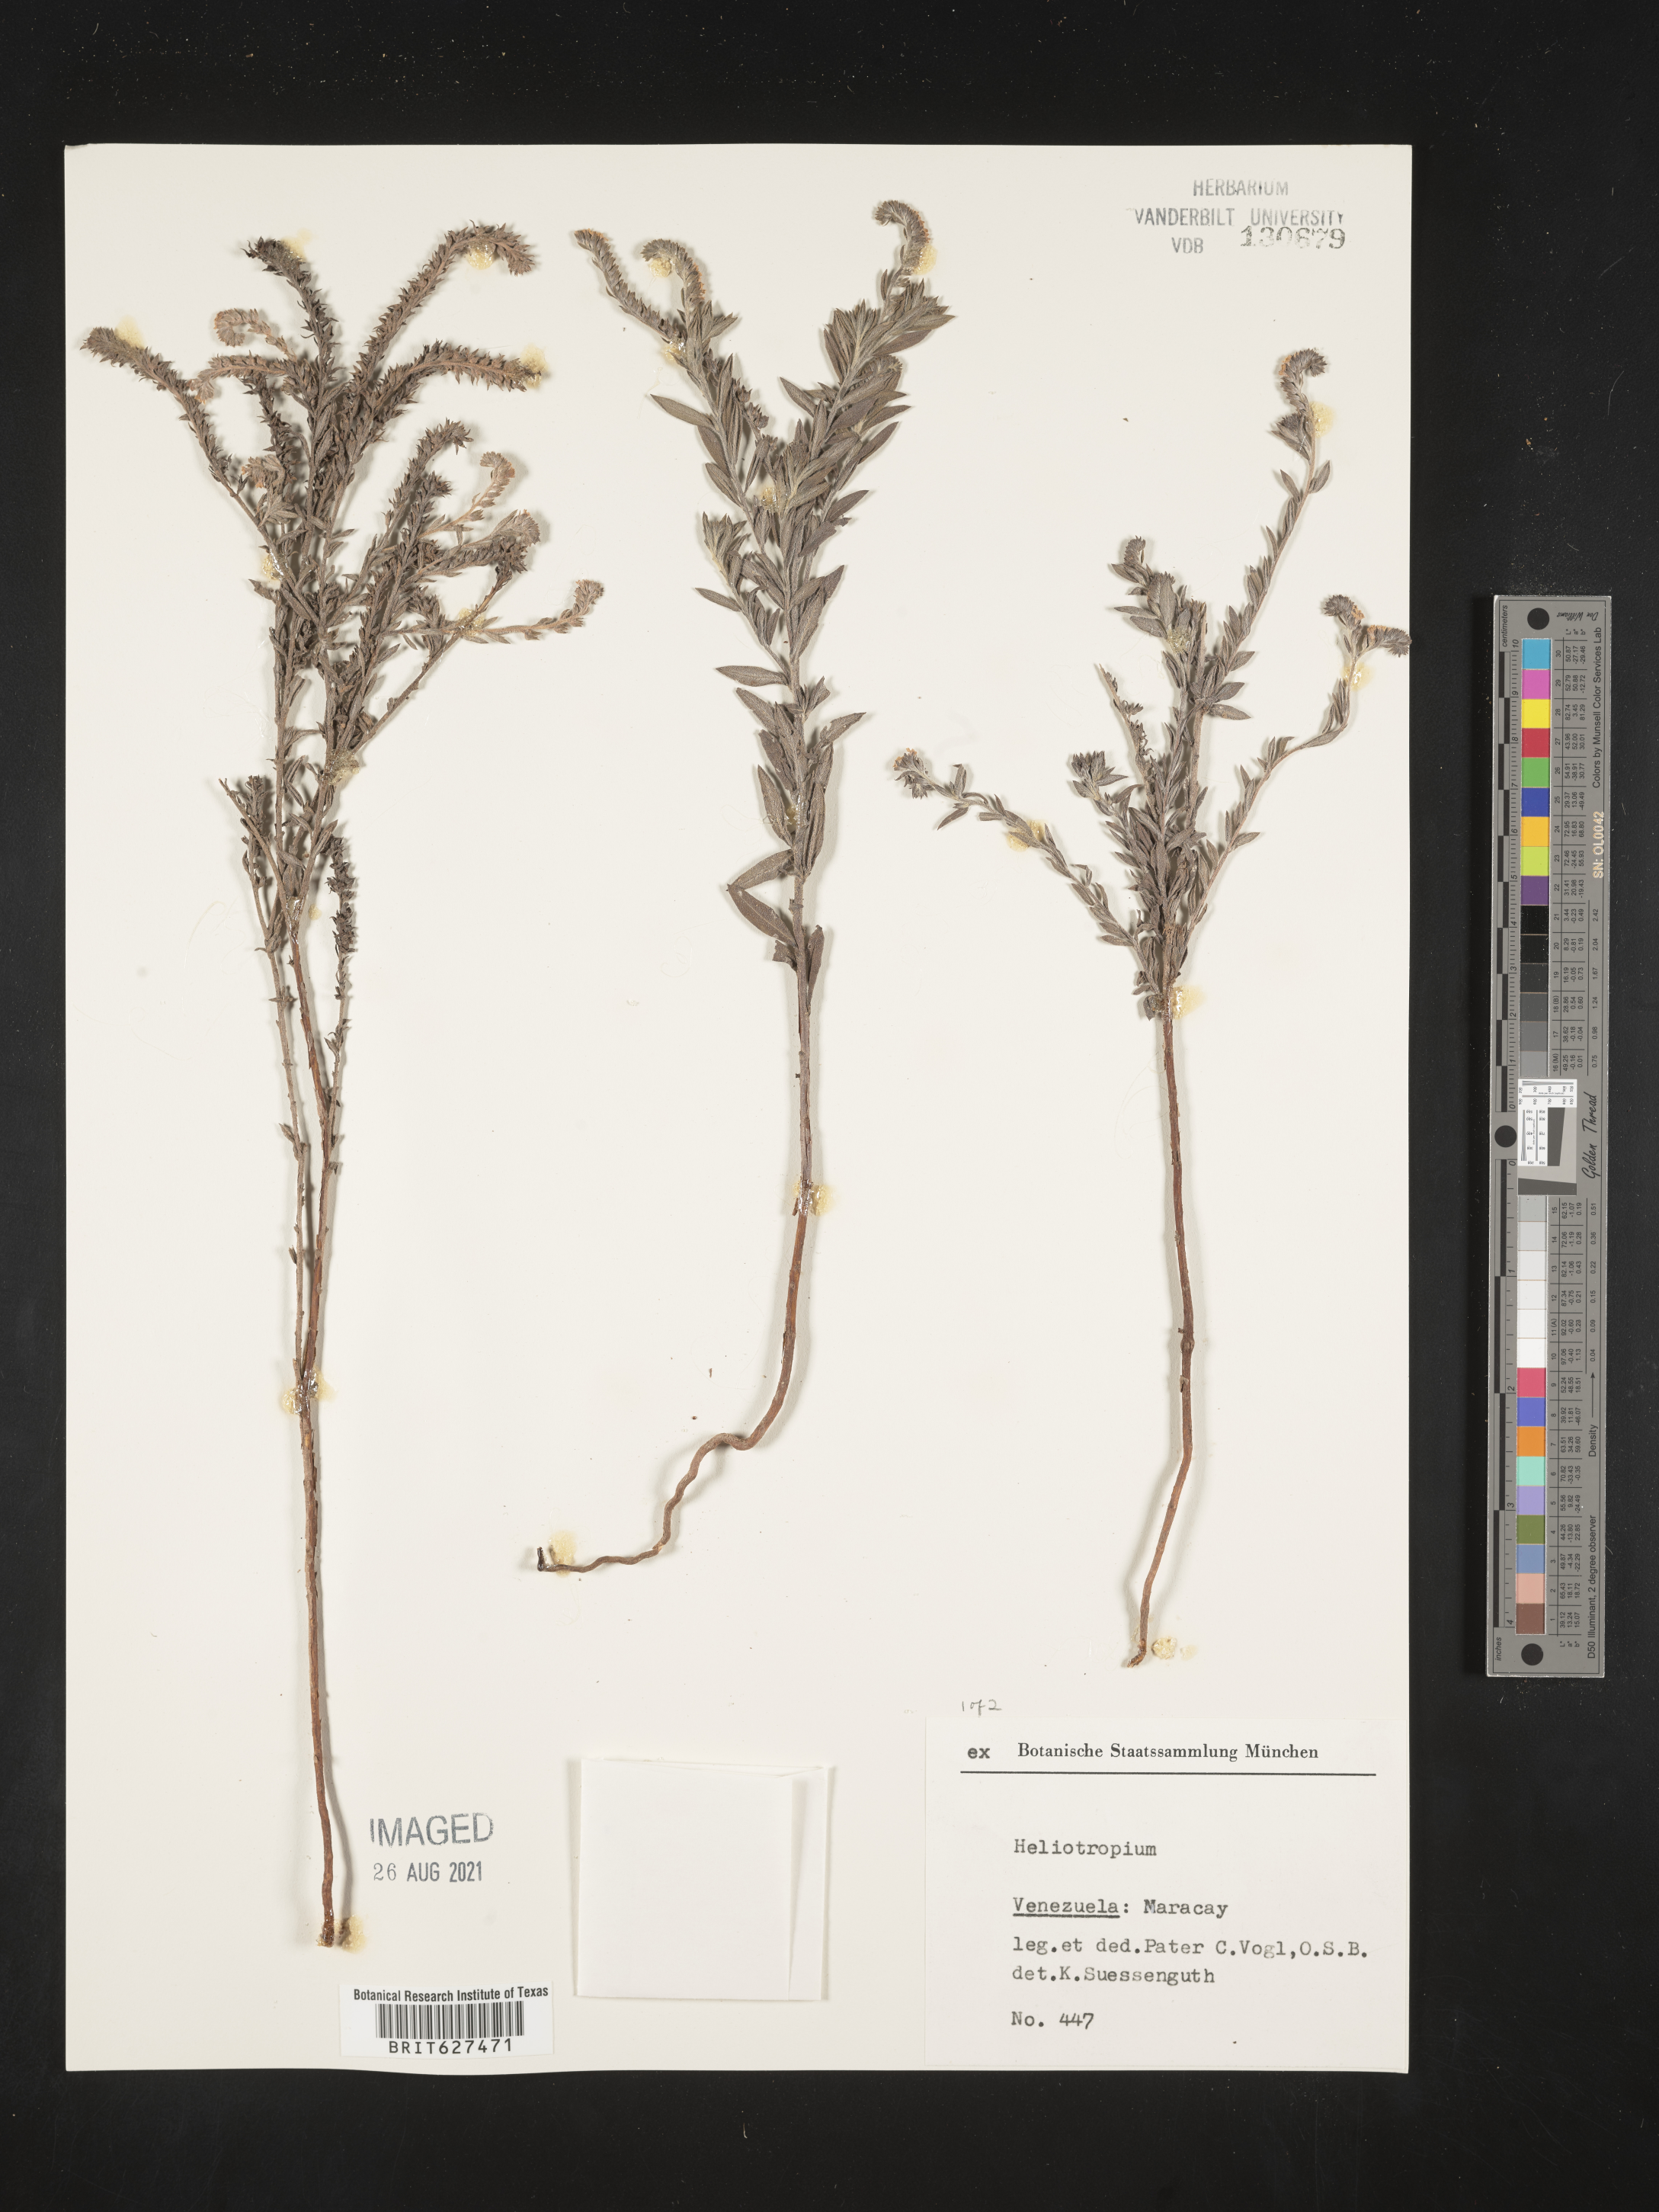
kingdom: Plantae
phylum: Tracheophyta
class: Magnoliopsida
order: Boraginales
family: Heliotropiaceae
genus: Heliotropium
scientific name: Heliotropium
